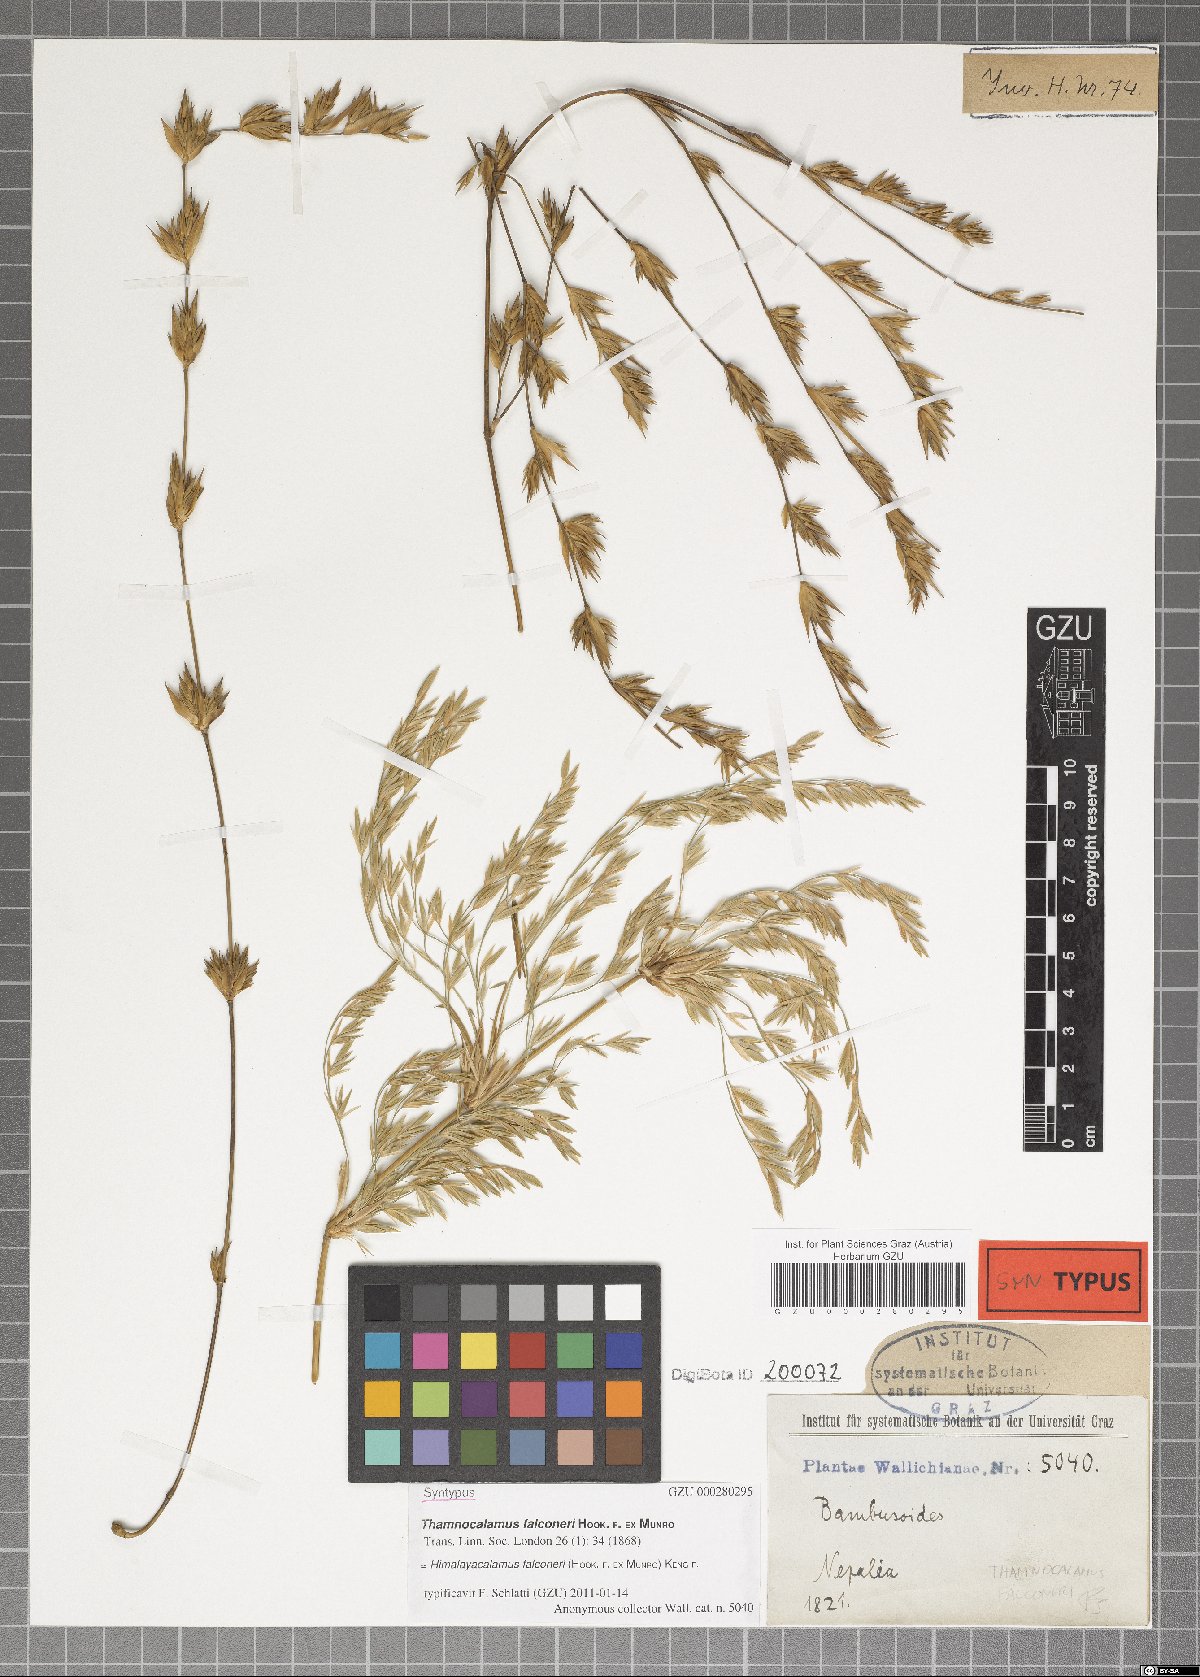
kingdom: Plantae
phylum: Tracheophyta
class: Liliopsida
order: Poales
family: Poaceae
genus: Himalayacalamus
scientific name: Himalayacalamus falconeri
